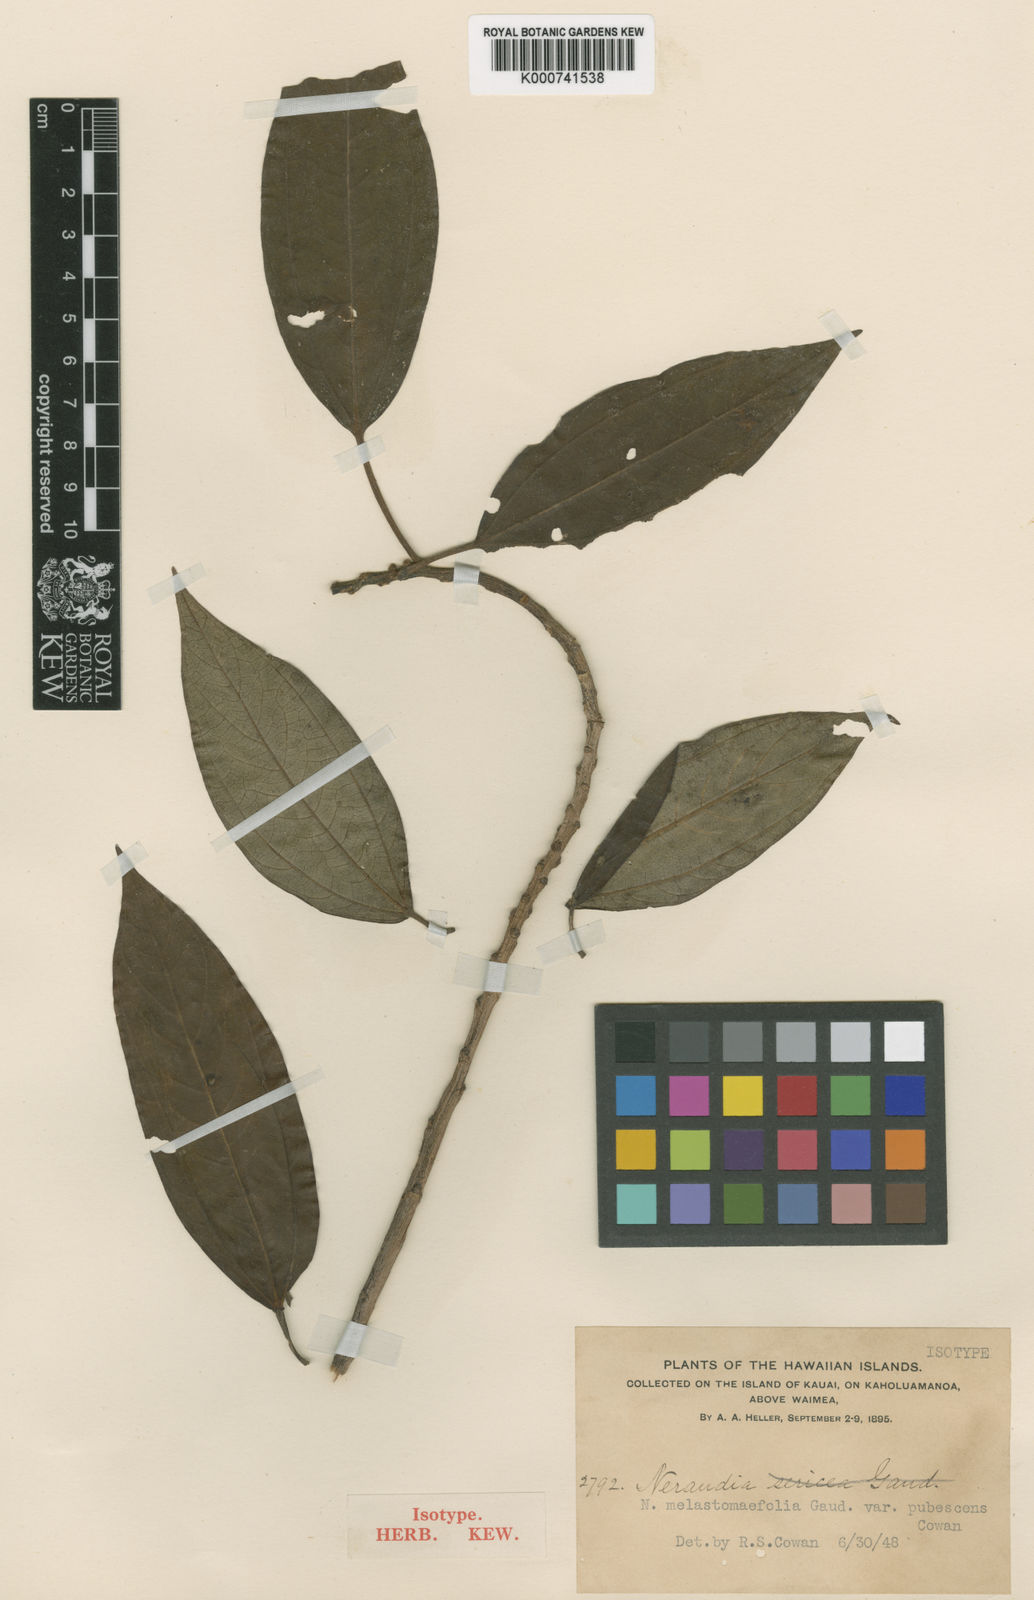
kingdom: Plantae
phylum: Tracheophyta
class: Magnoliopsida
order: Rosales
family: Urticaceae
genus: Neraudia
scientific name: Neraudia melastomifolia
